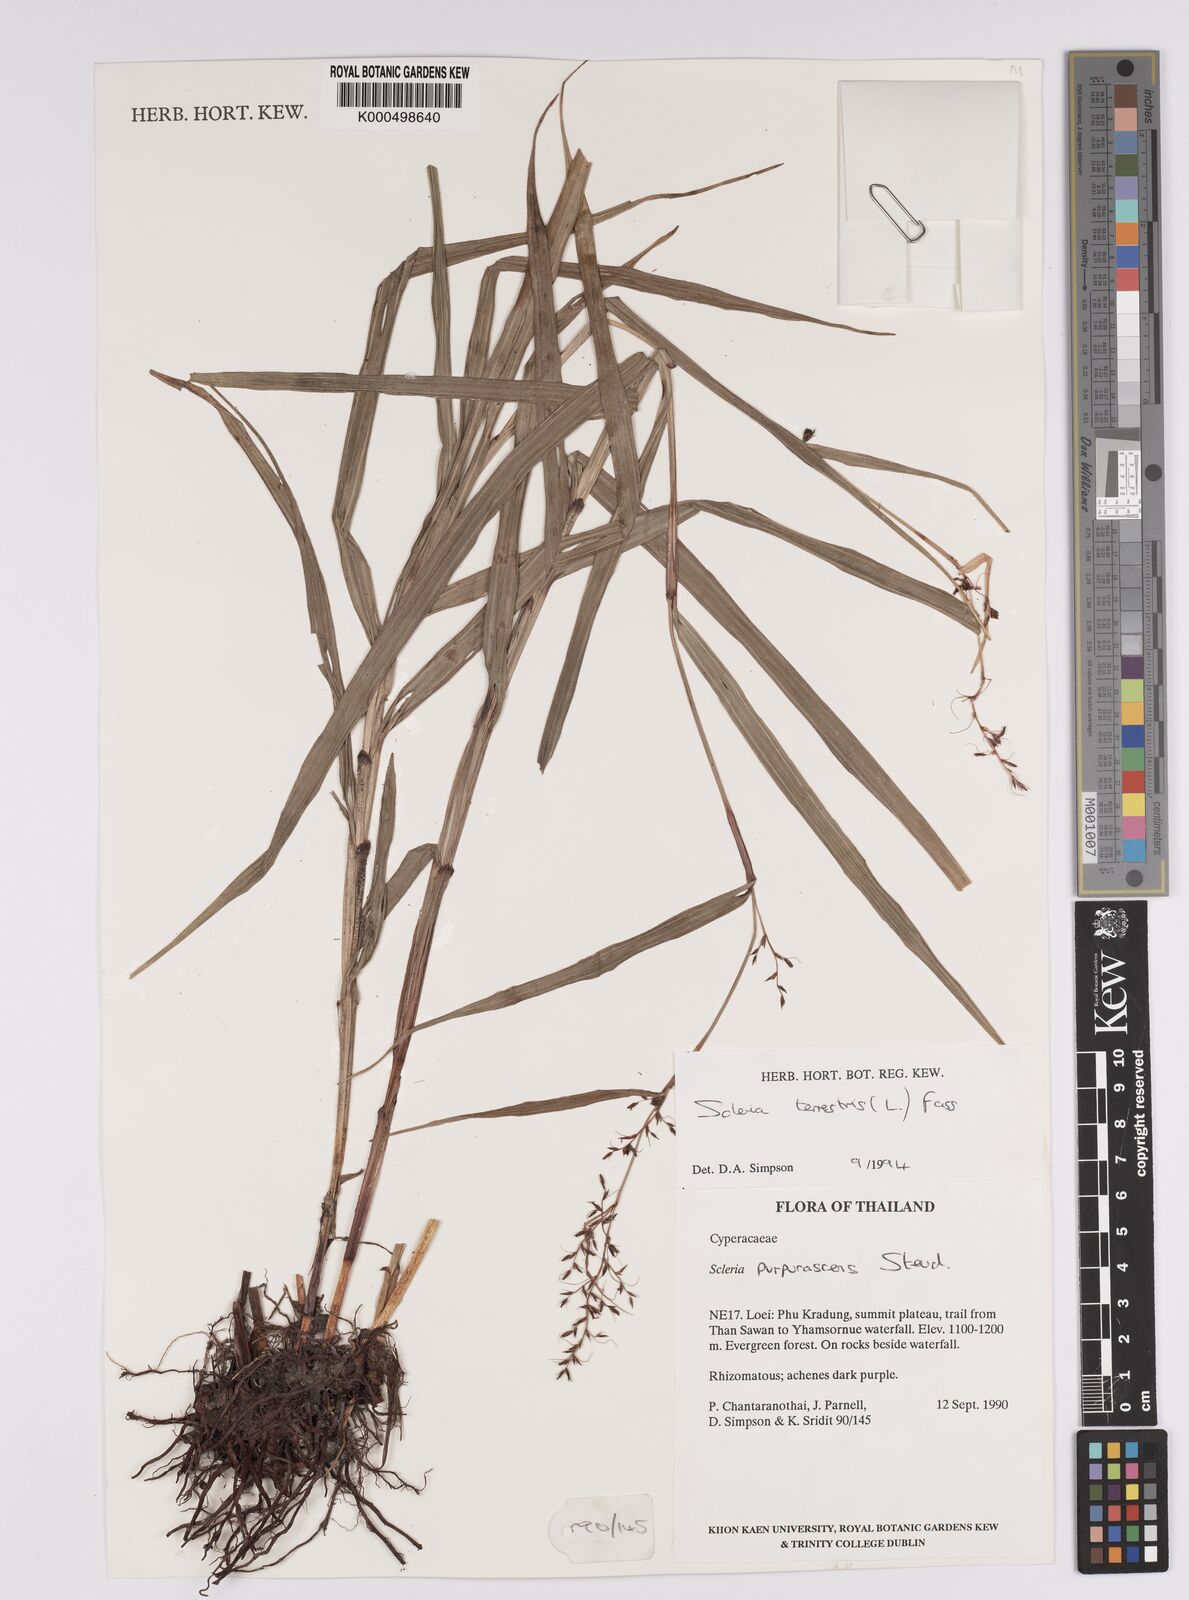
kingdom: Plantae
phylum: Tracheophyta
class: Liliopsida
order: Poales
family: Cyperaceae
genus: Scleria
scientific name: Scleria terrestris
